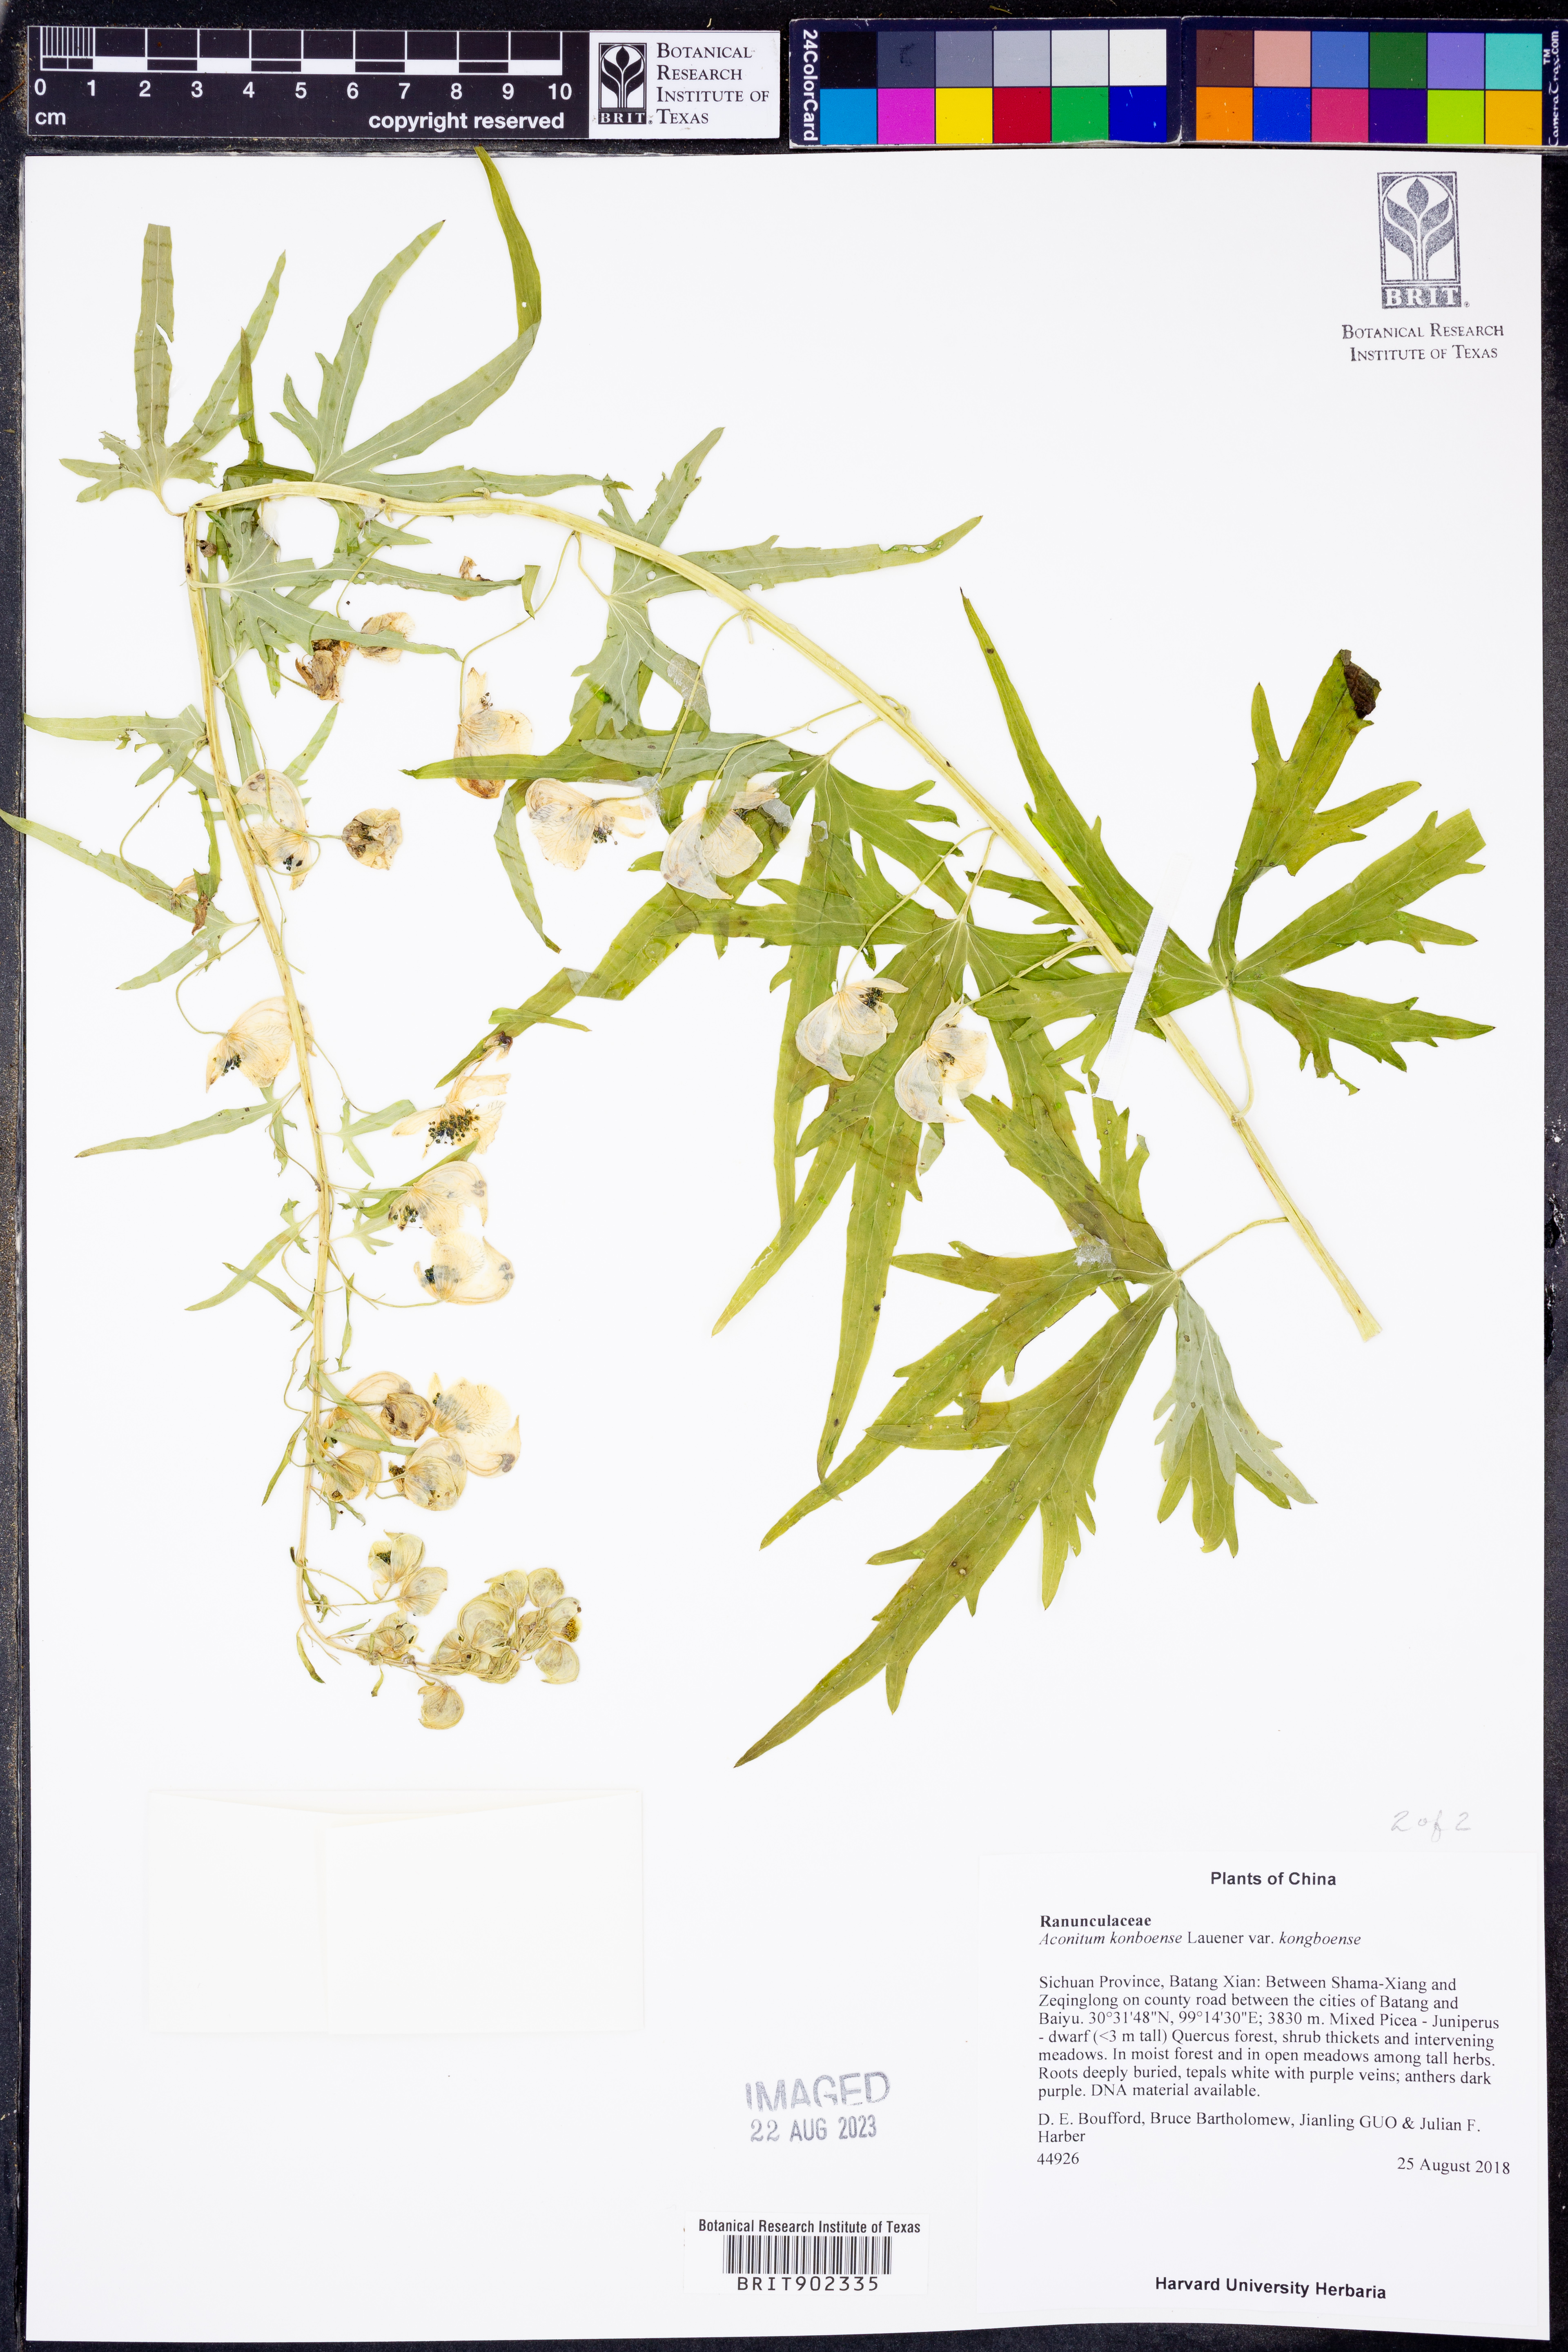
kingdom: Plantae
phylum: Tracheophyta
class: Magnoliopsida
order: Ranunculales
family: Ranunculaceae
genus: Aconitum
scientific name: Aconitum kongboense
